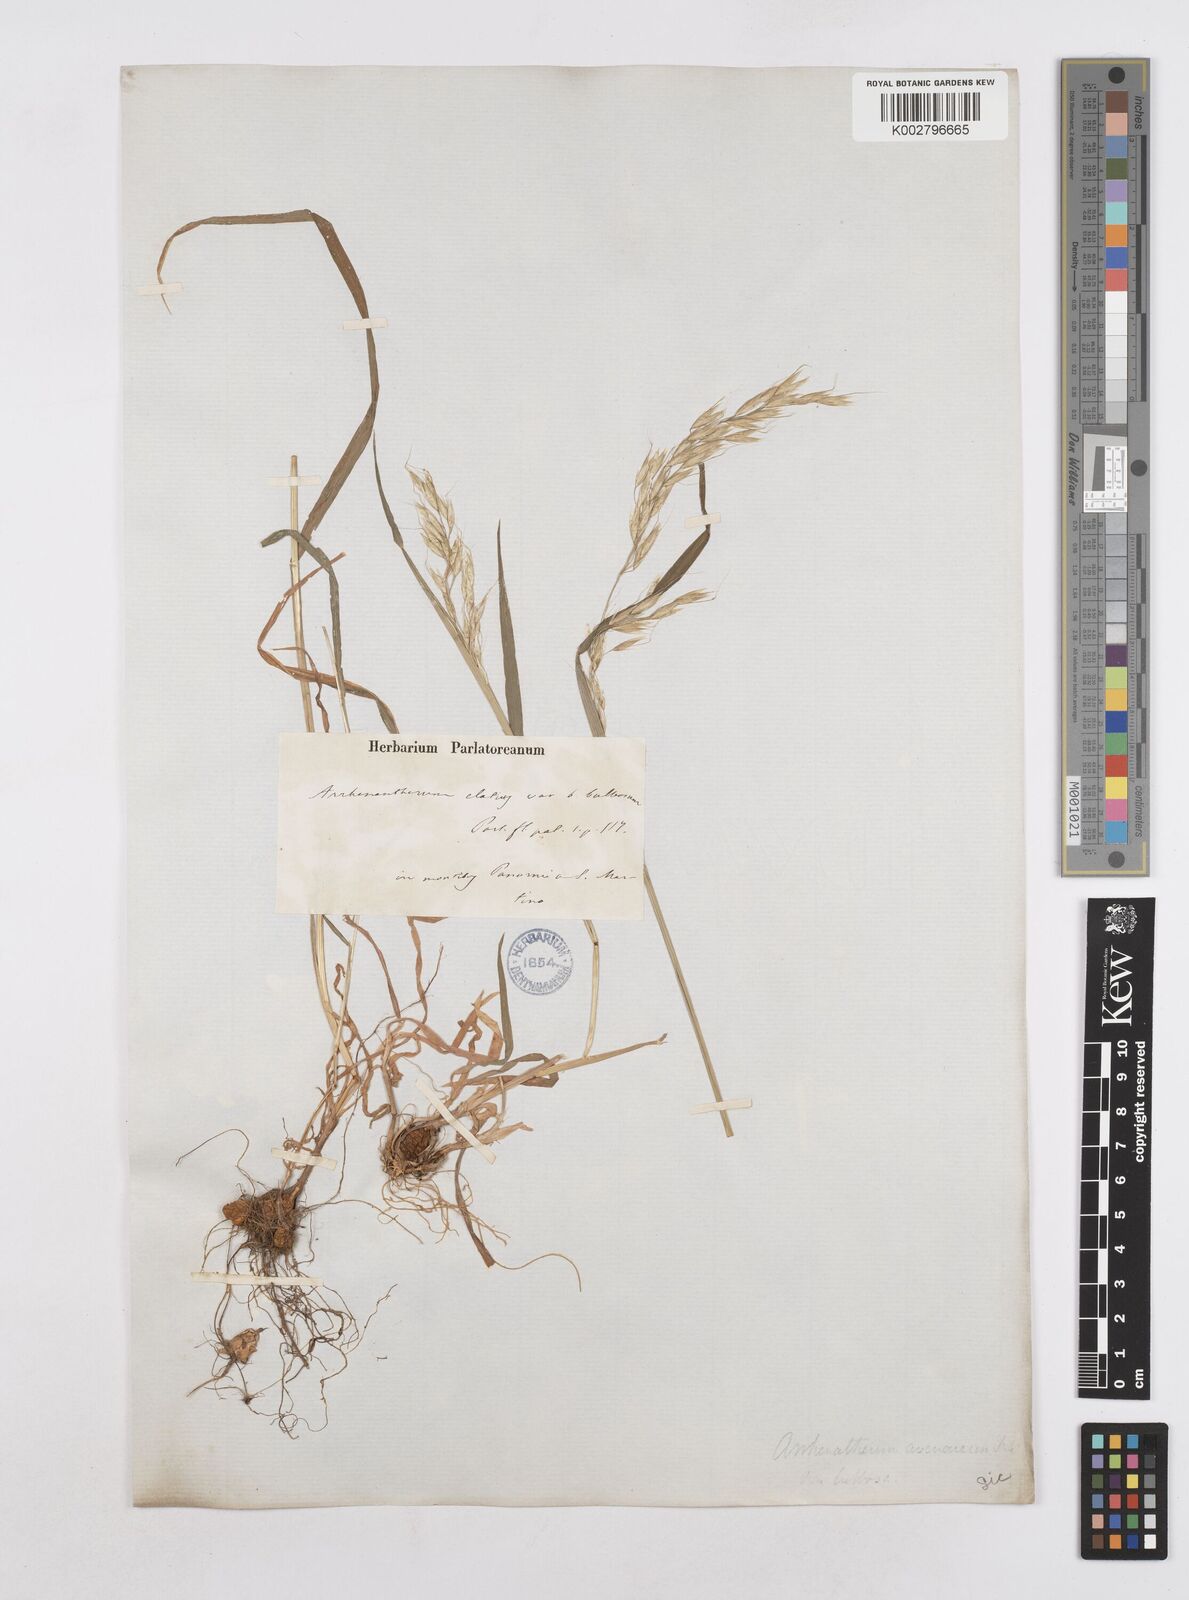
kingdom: Plantae
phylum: Tracheophyta
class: Liliopsida
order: Poales
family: Poaceae
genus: Arrhenatherum
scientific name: Arrhenatherum elatius
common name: Tall oatgrass
